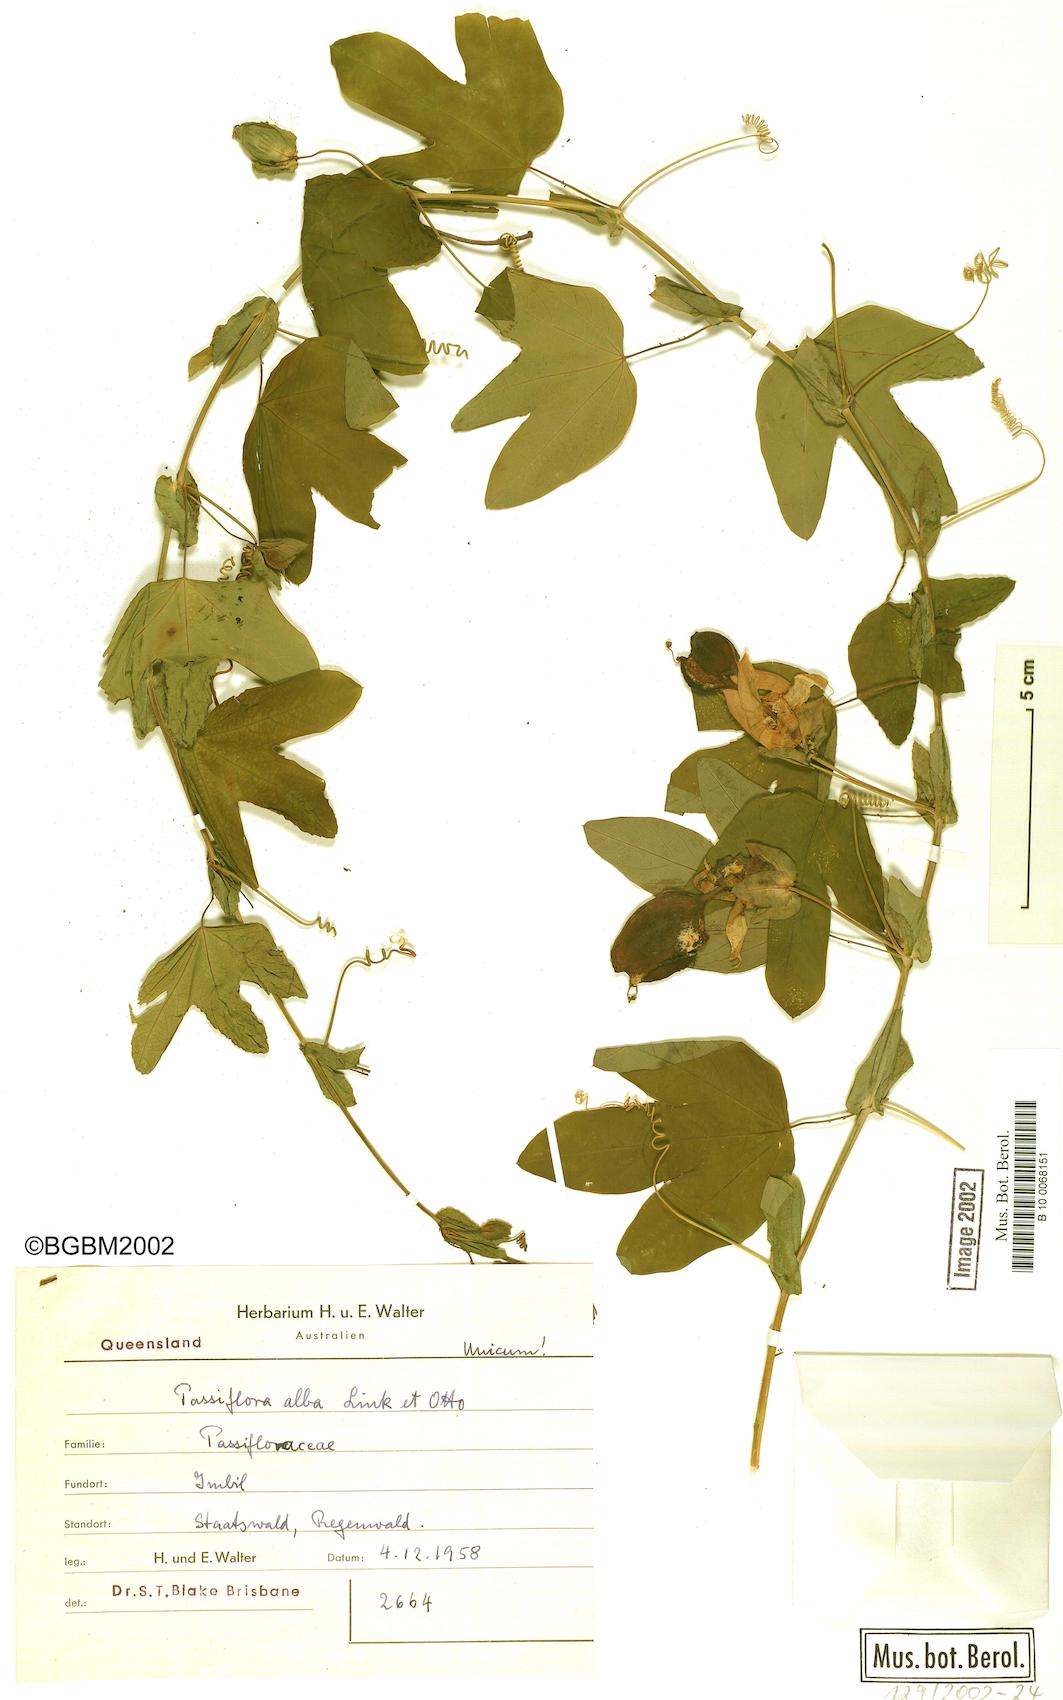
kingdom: Plantae
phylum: Tracheophyta
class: Magnoliopsida
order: Malpighiales
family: Passifloraceae
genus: Passiflora
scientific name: Passiflora subpeltata
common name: White passionflower
